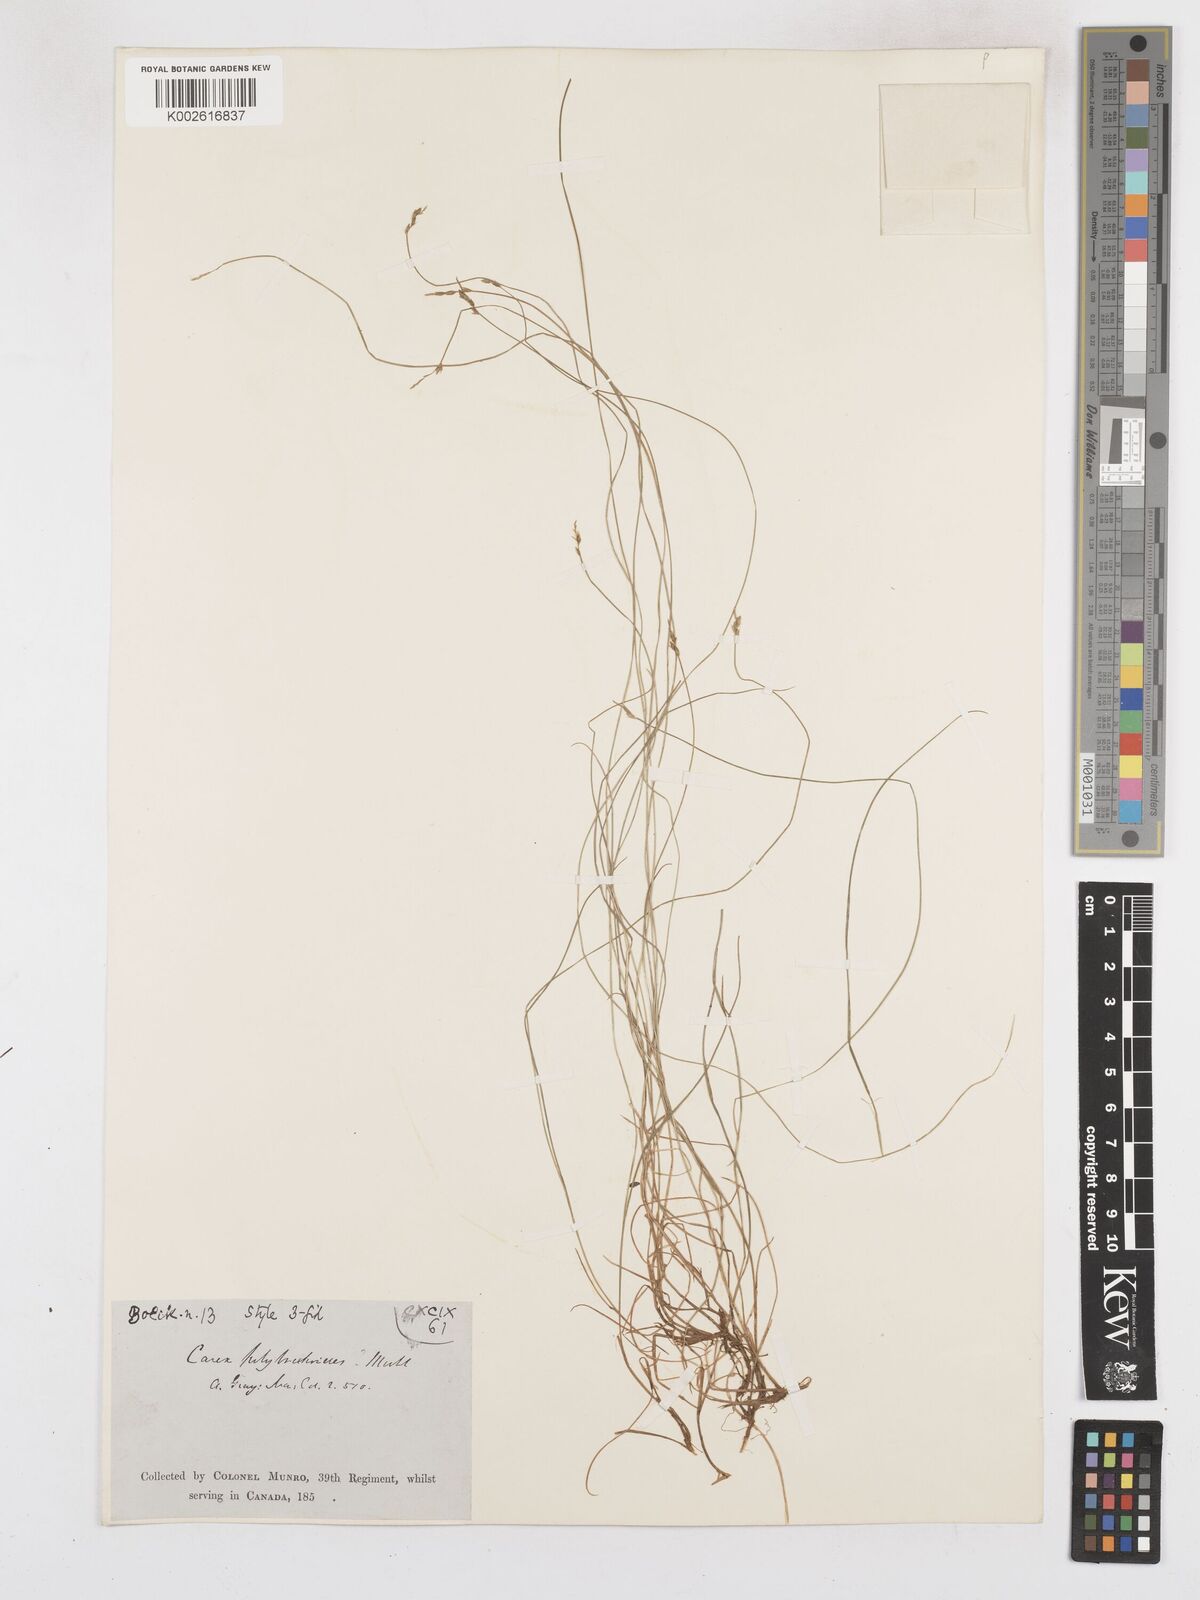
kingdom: Plantae
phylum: Tracheophyta
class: Liliopsida
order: Poales
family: Cyperaceae
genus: Carex
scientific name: Carex leptalea
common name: Bristly-stalked sedge
